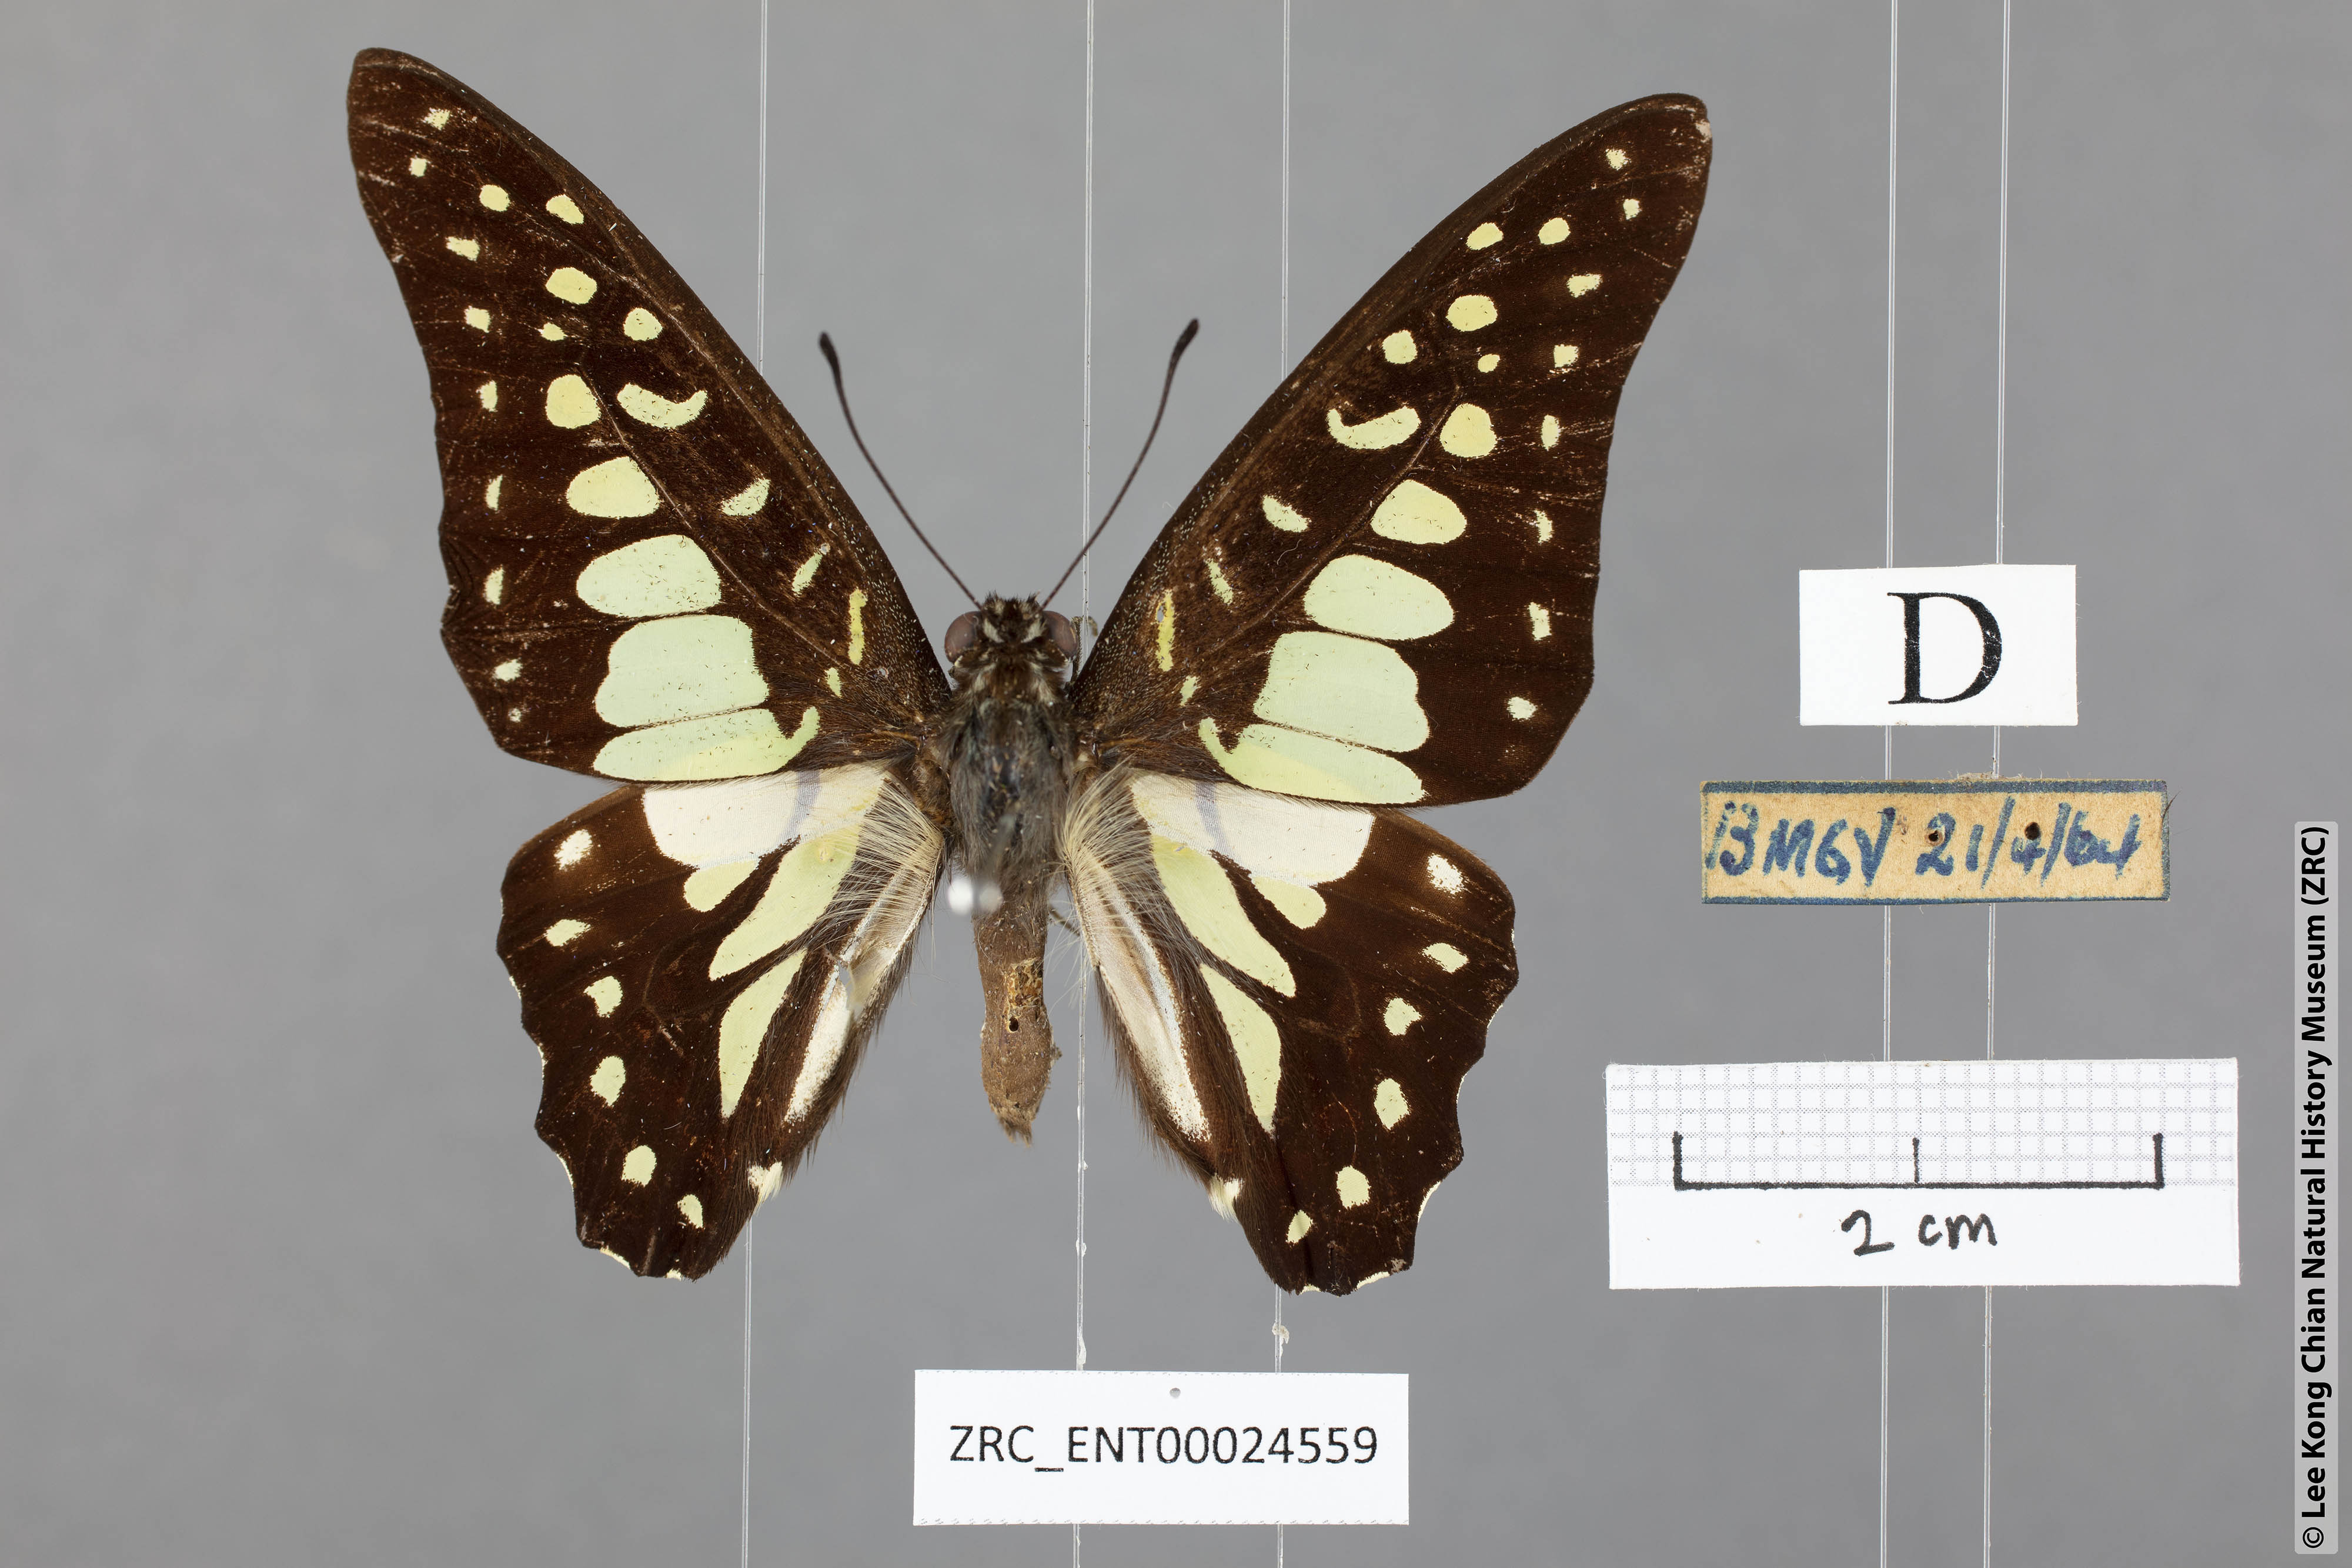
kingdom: Animalia
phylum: Arthropoda
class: Insecta
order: Lepidoptera
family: Papilionidae
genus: Graphium
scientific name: Graphium bathycles
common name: Veined jay
